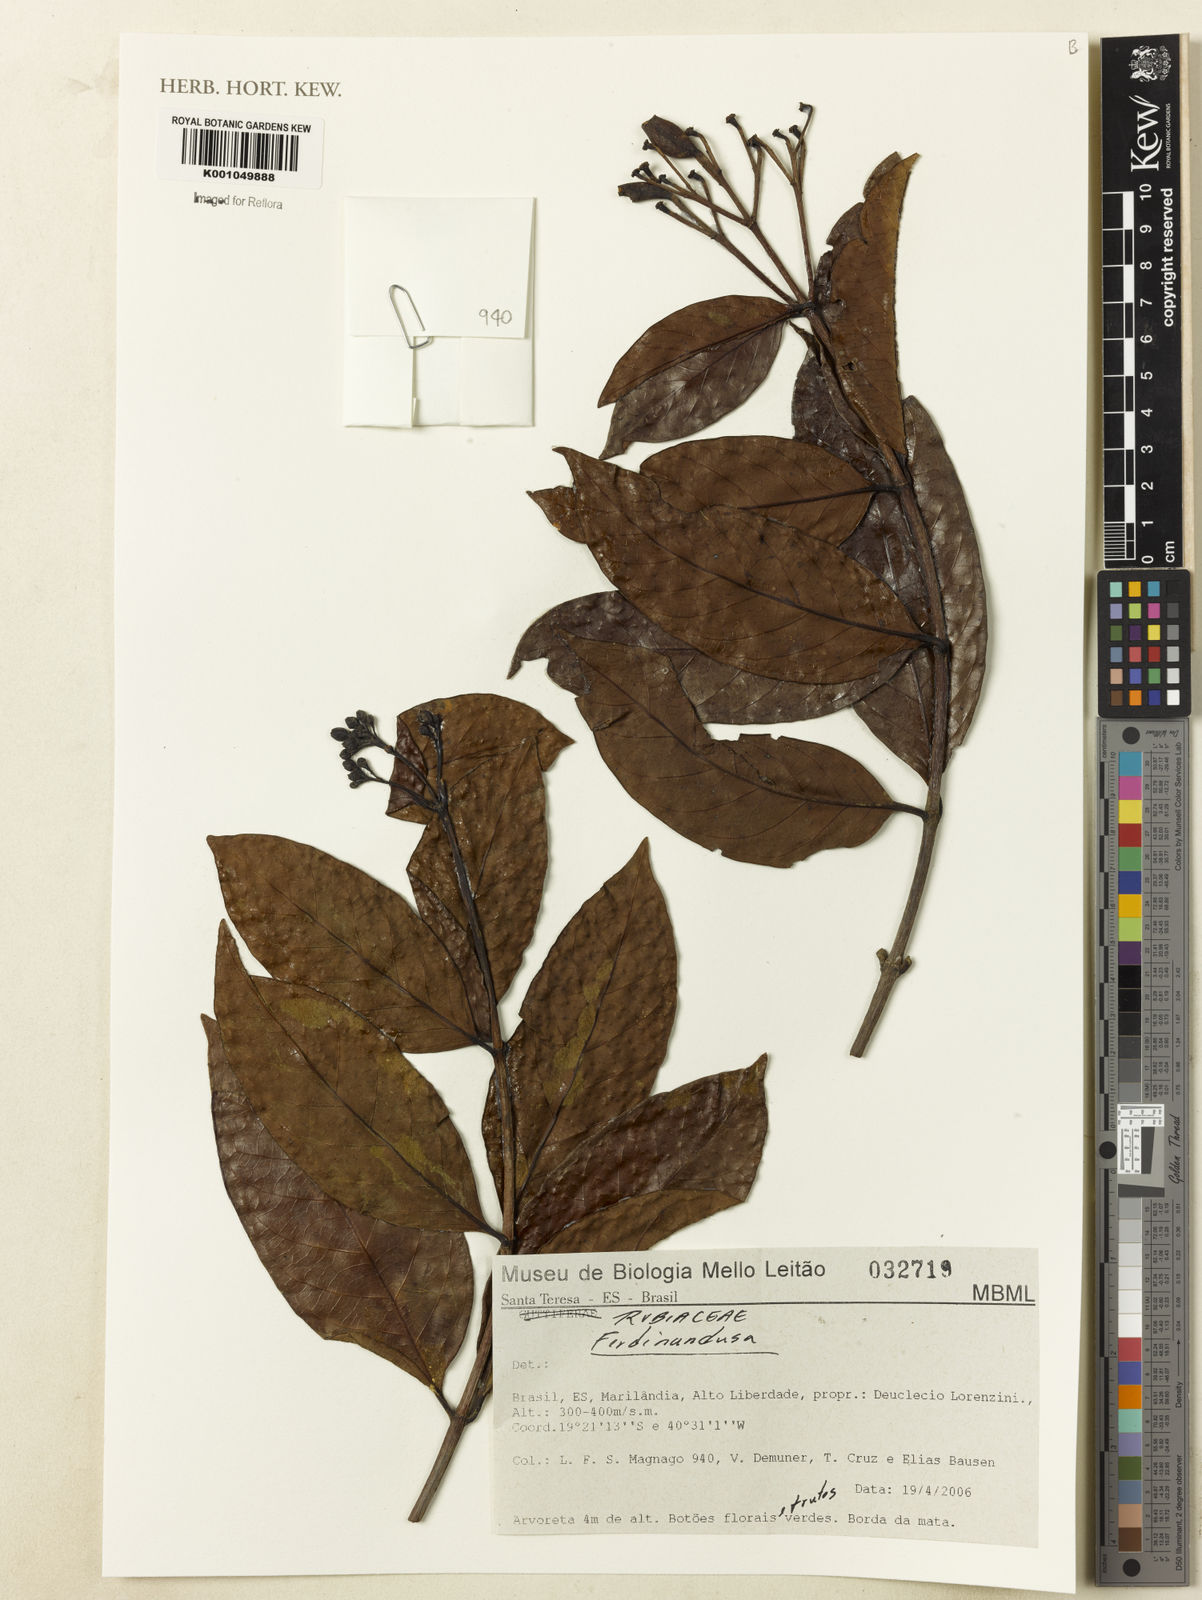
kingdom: Plantae
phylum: Tracheophyta
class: Magnoliopsida
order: Gentianales
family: Rubiaceae
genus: Ferdinandusa
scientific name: Ferdinandusa
